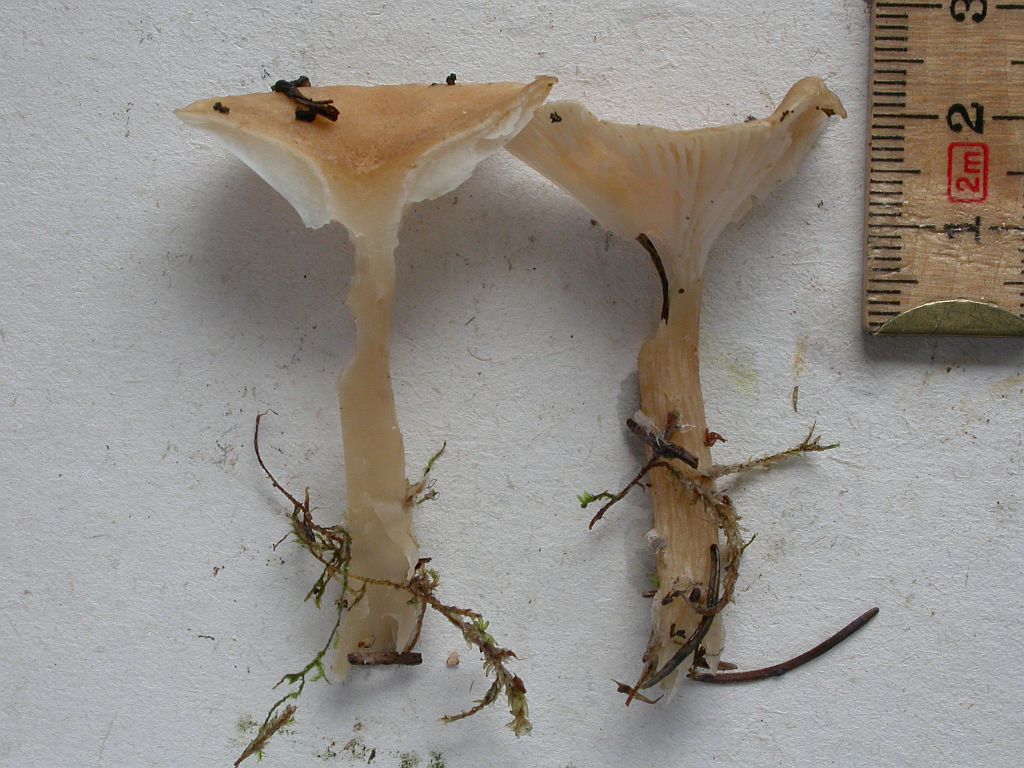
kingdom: Fungi
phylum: Basidiomycota
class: Agaricomycetes
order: Agaricales
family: Tricholomataceae
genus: Infundibulicybe
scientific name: Infundibulicybe squamulosa
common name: småskællet tragthat
